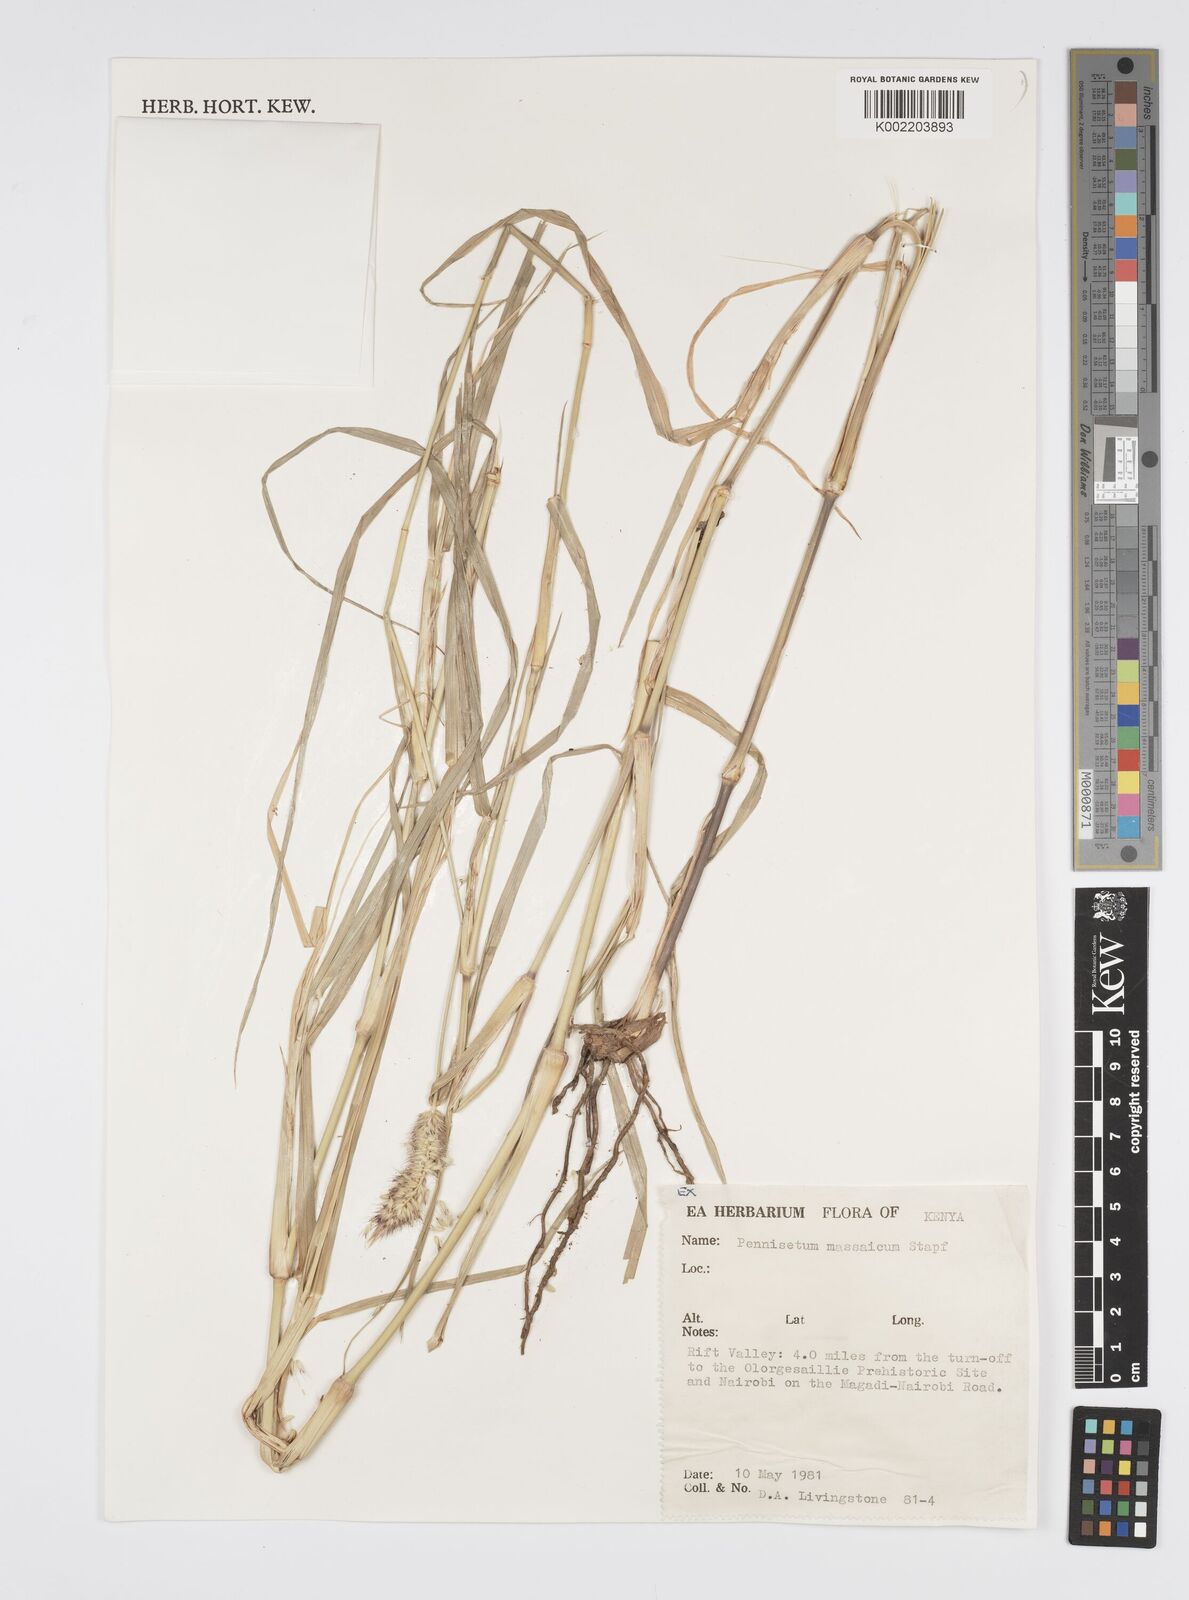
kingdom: Plantae
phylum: Tracheophyta
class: Liliopsida
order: Poales
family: Poaceae
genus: Cenchrus
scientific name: Cenchrus massaicus
